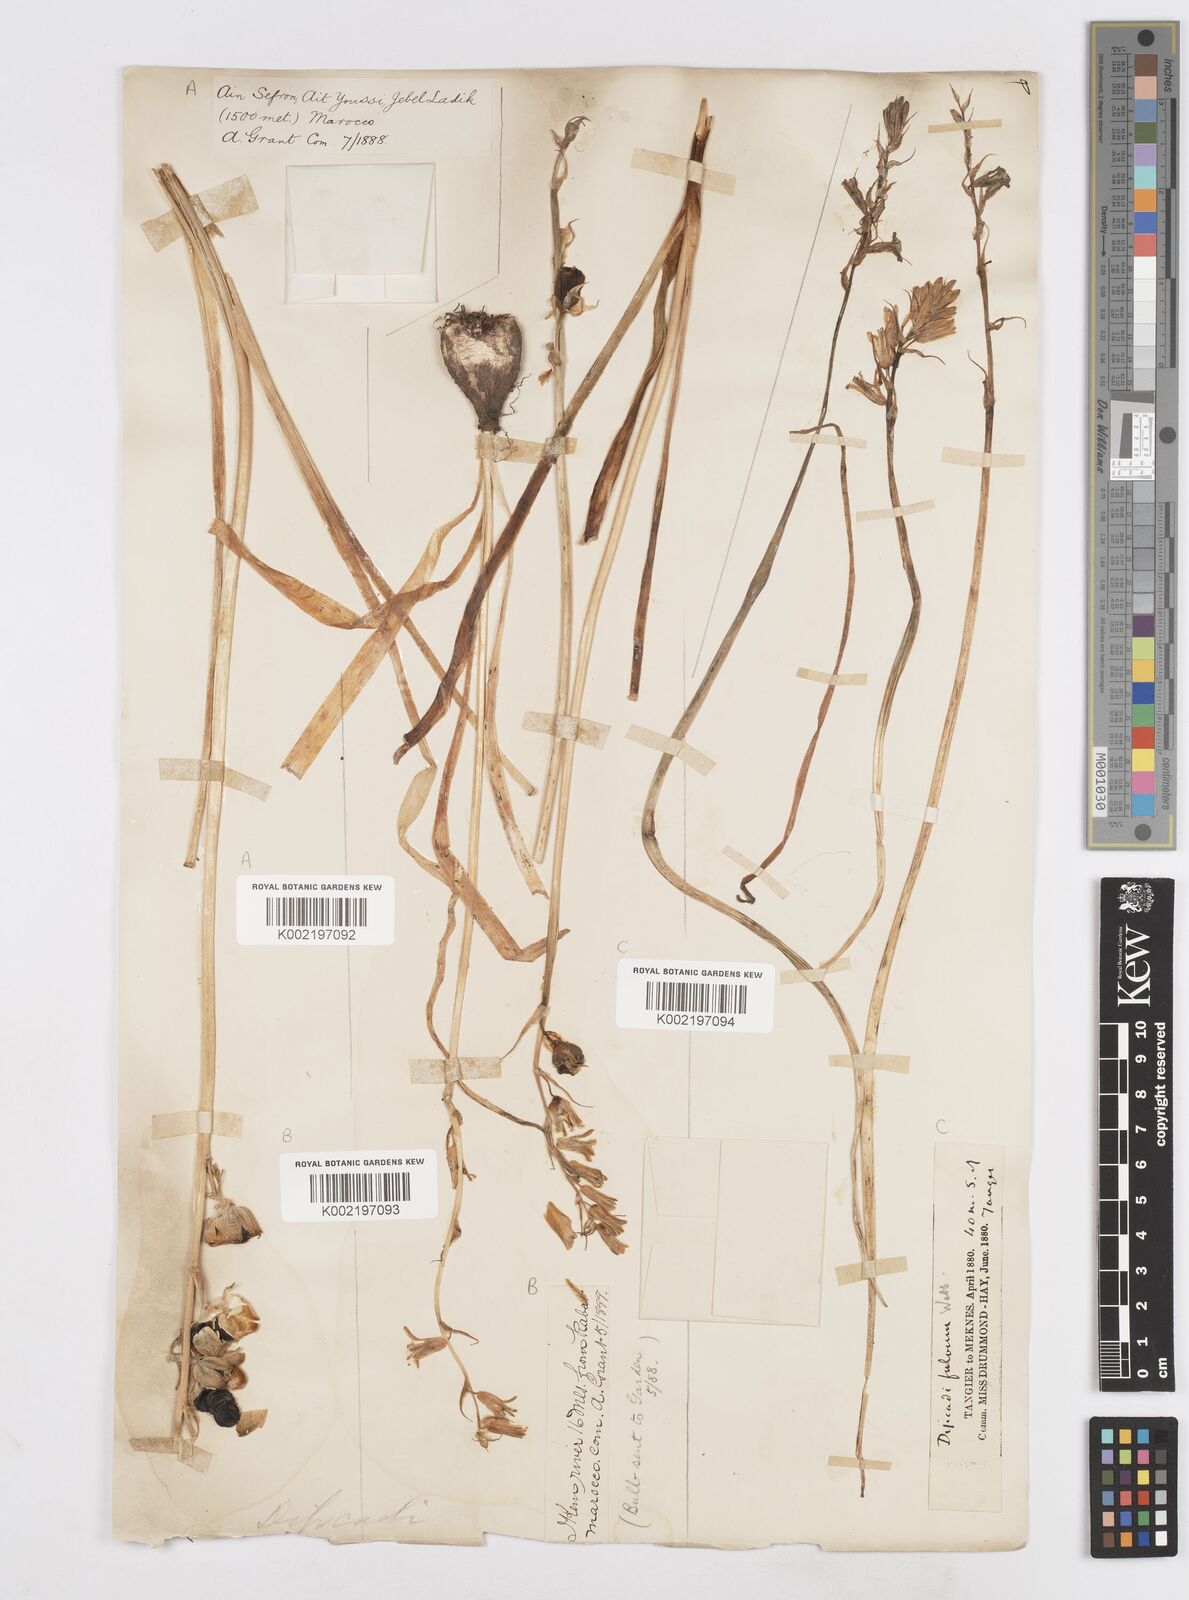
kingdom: Plantae
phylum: Tracheophyta
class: Liliopsida
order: Asparagales
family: Asparagaceae
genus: Dipcadi
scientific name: Dipcadi serotinum
